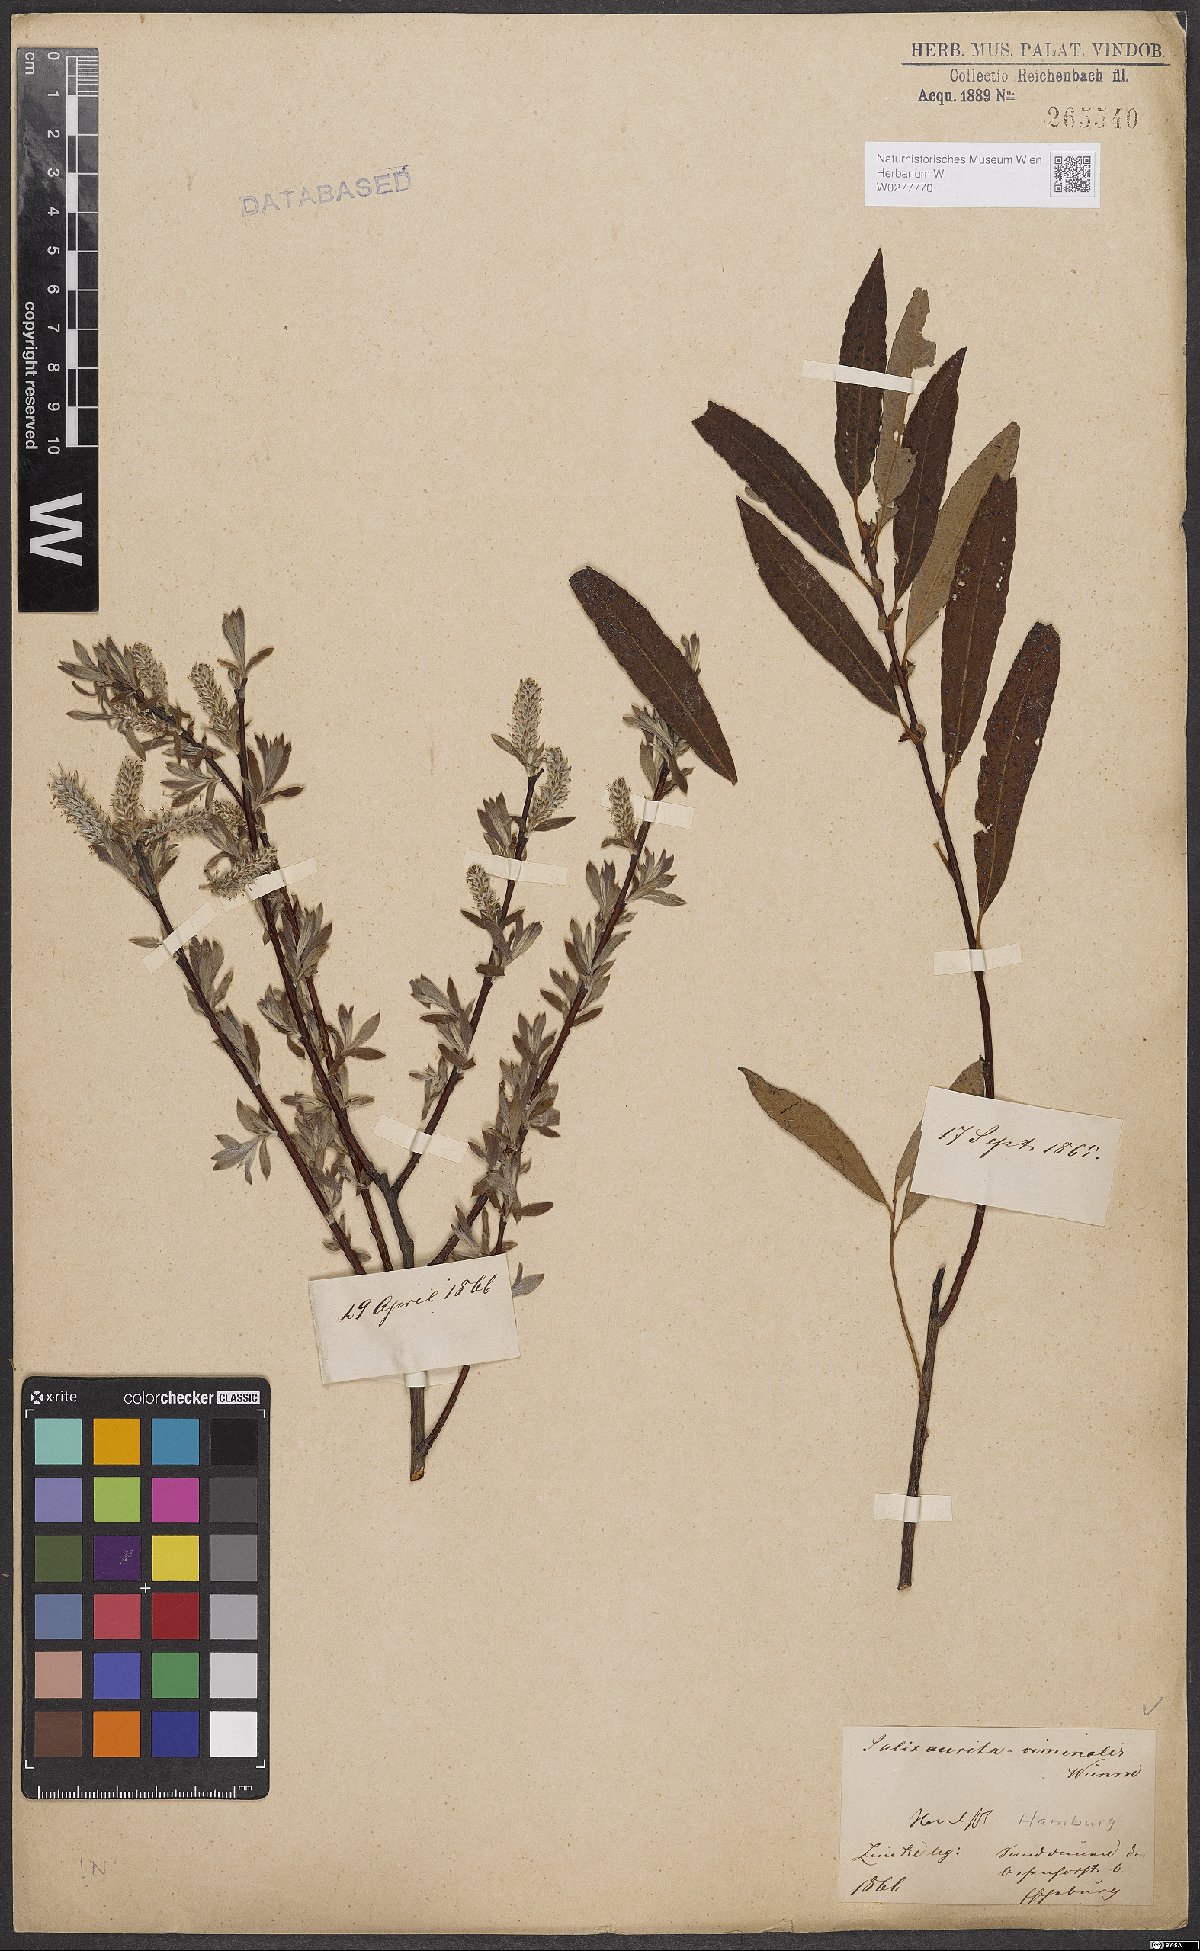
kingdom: Plantae
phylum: Tracheophyta
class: Magnoliopsida
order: Malpighiales
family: Salicaceae
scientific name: Salicaceae
